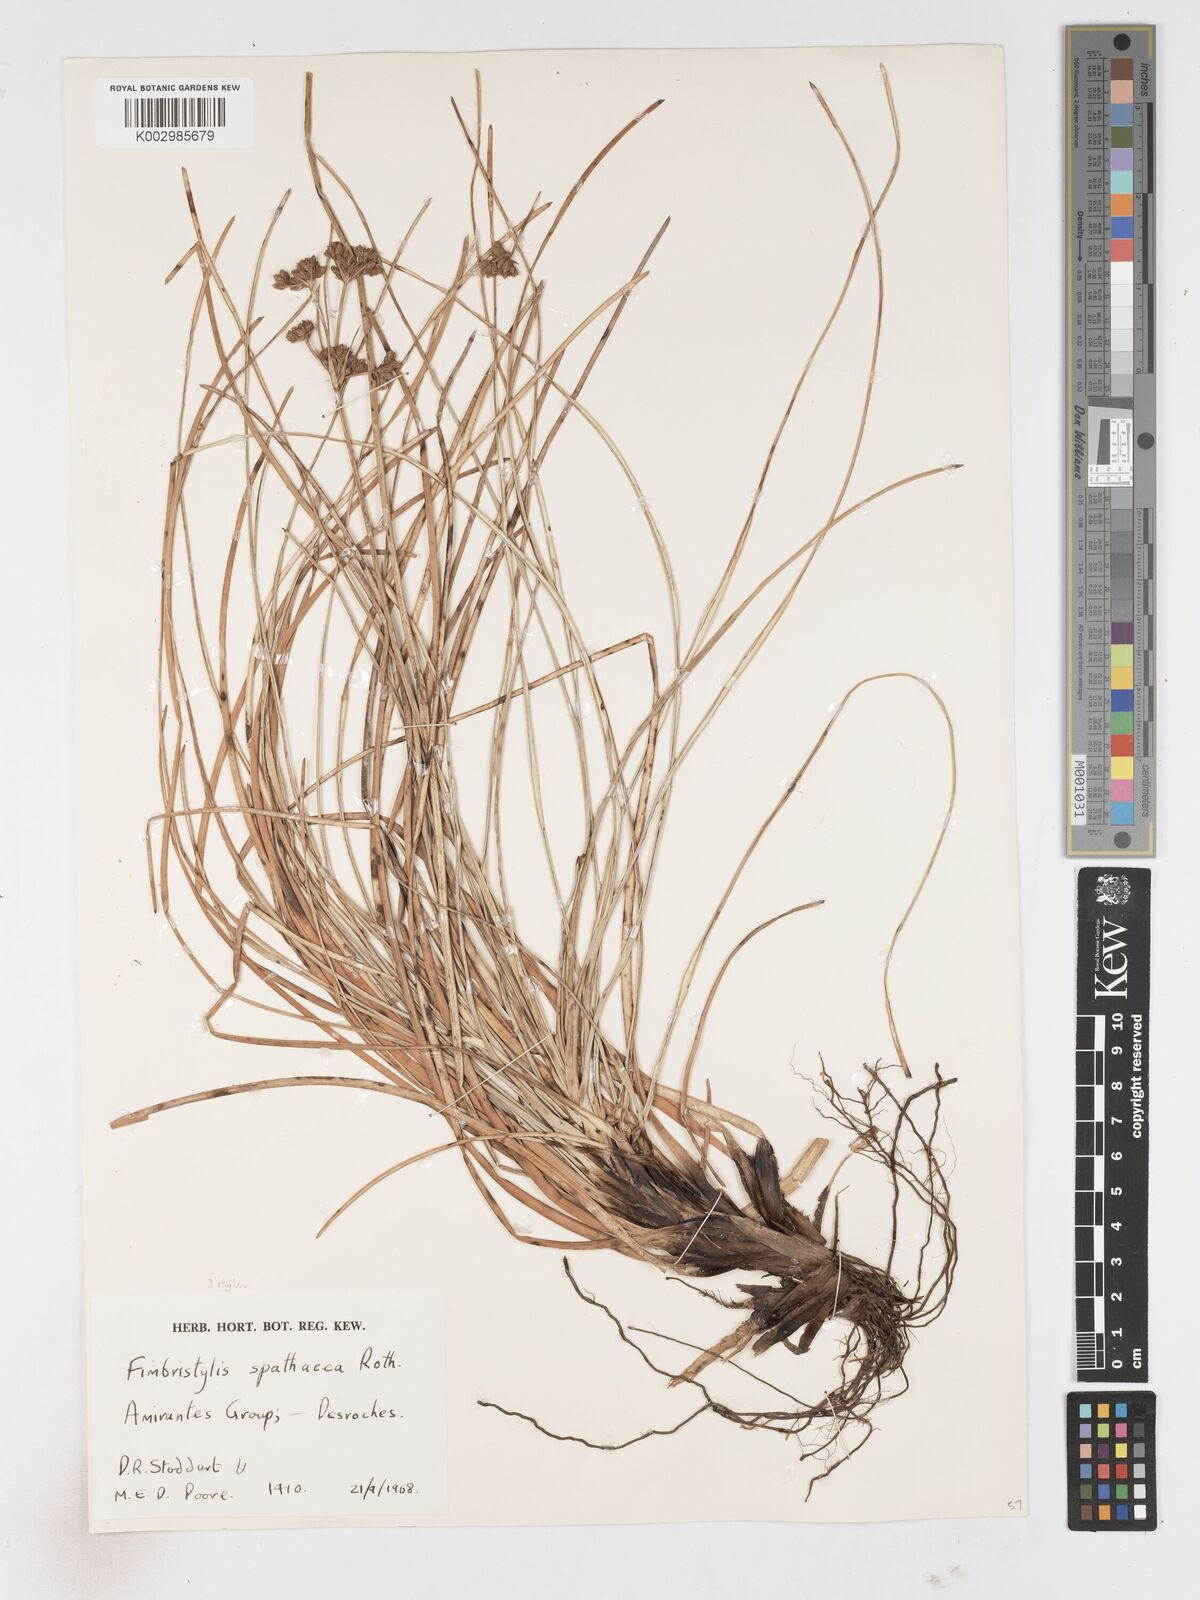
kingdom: Plantae
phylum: Tracheophyta
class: Liliopsida
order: Poales
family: Cyperaceae
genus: Fimbristylis
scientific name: Fimbristylis cymosa
